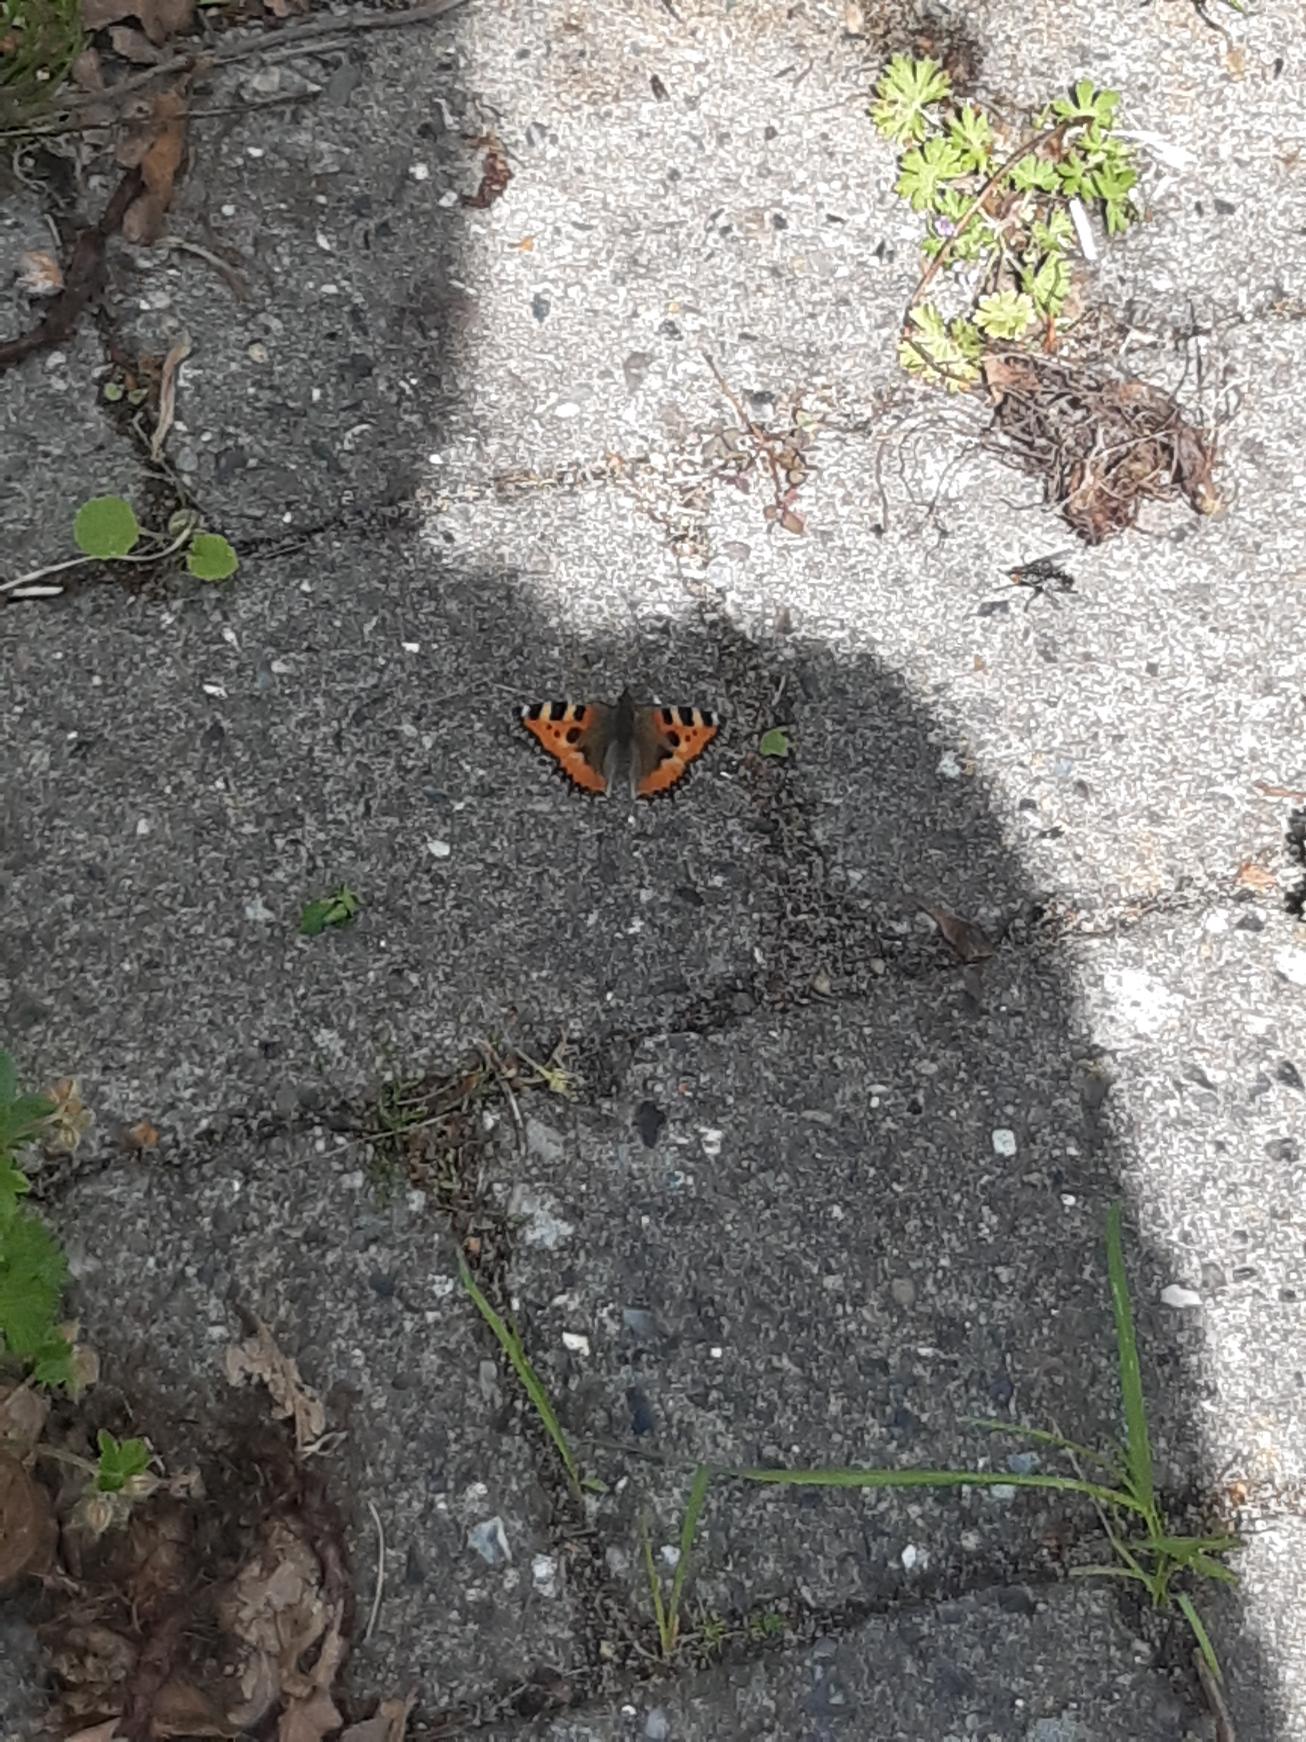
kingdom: Animalia
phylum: Arthropoda
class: Insecta
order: Lepidoptera
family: Nymphalidae
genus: Aglais
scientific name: Aglais urticae
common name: Nældens takvinge
